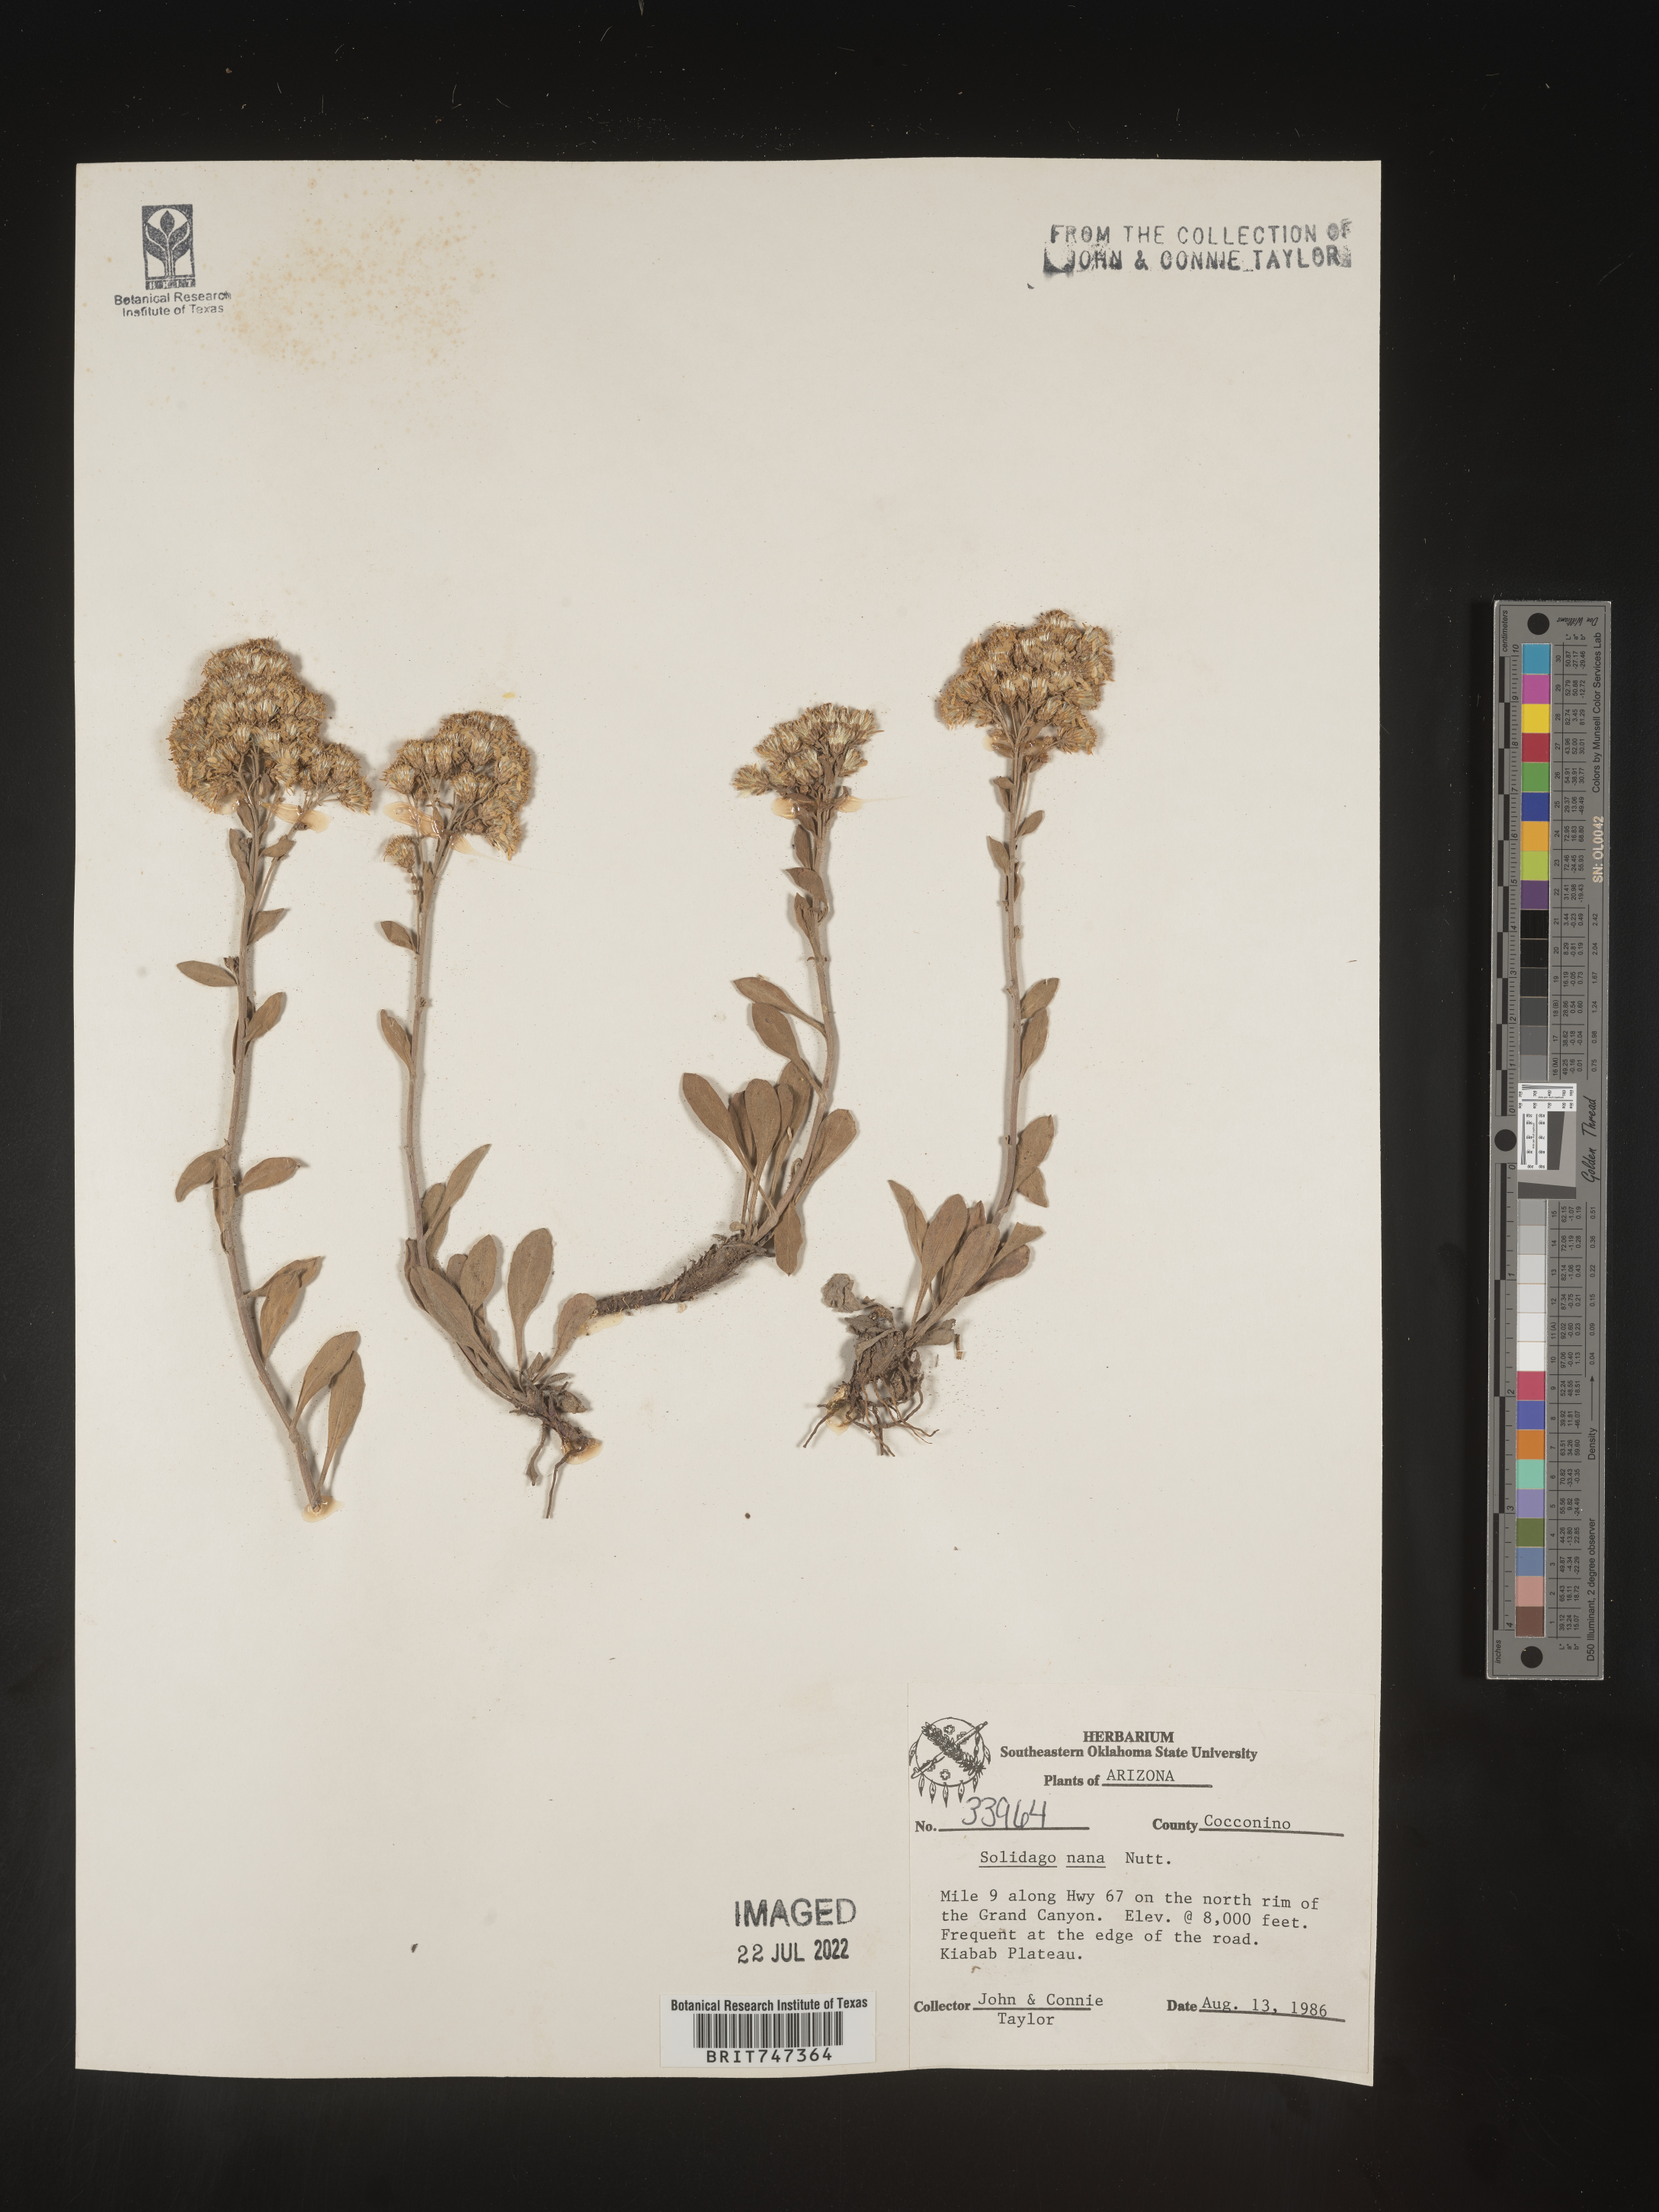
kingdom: Plantae
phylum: Tracheophyta
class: Magnoliopsida
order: Asterales
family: Asteraceae
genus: Solidago
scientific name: Solidago nana
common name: Baby goldenrod
